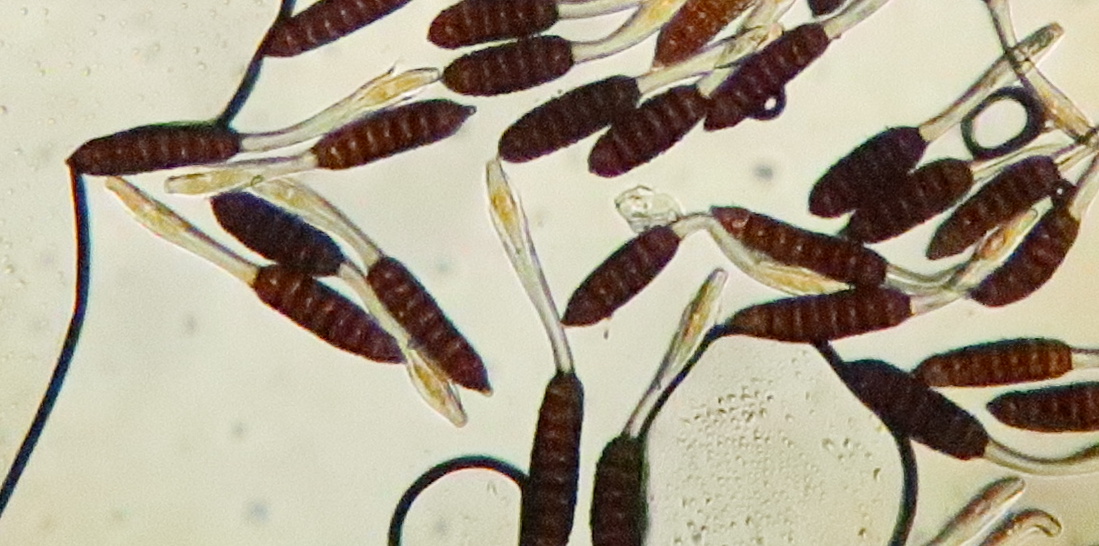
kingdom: Fungi
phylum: Basidiomycota
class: Pucciniomycetes
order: Pucciniales
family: Phragmidiaceae
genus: Phragmidium
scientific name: Phragmidium rubi-idaei
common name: hindbær-flercellerust
